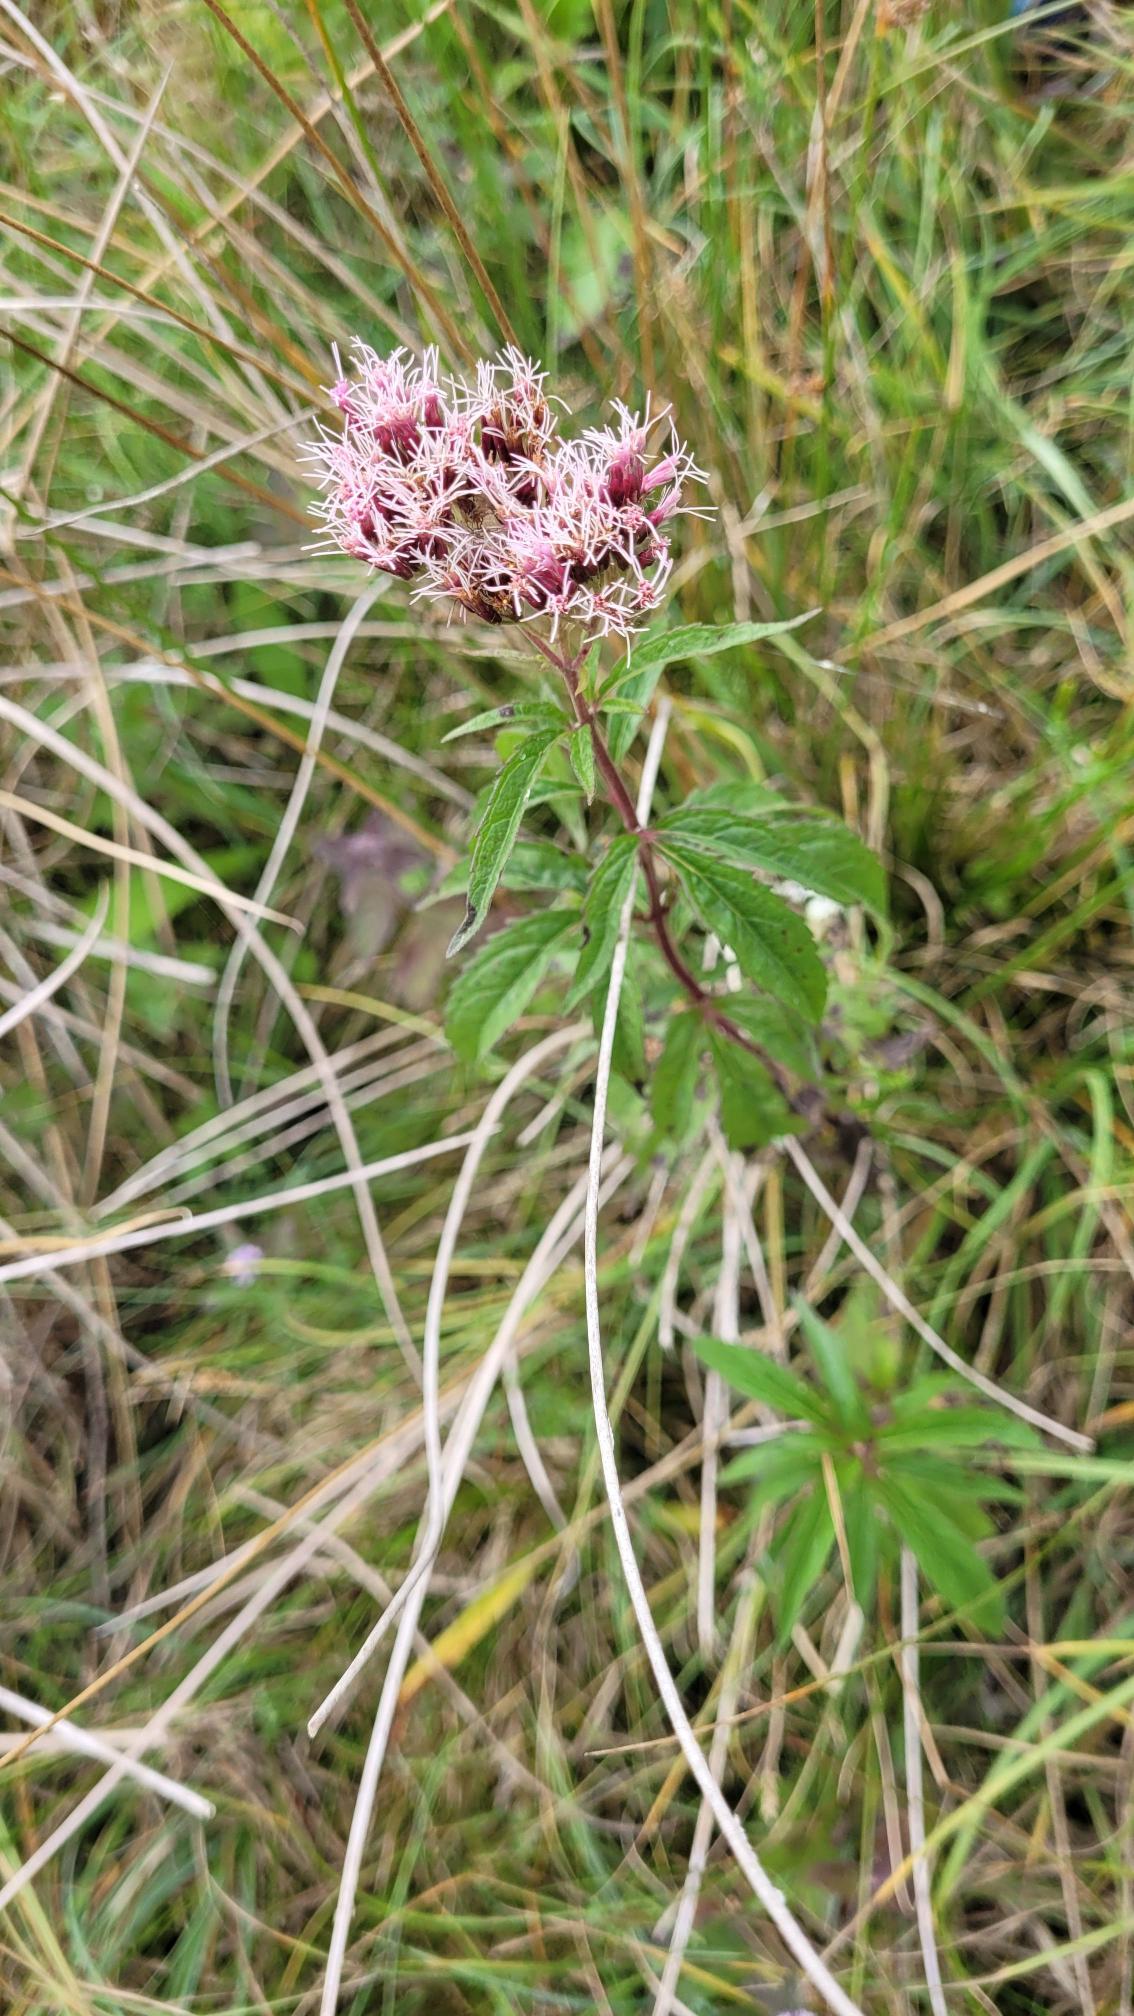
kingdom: Plantae
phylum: Tracheophyta
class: Magnoliopsida
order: Asterales
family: Asteraceae
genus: Eupatorium
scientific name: Eupatorium cannabinum
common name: Hjortetrøst
